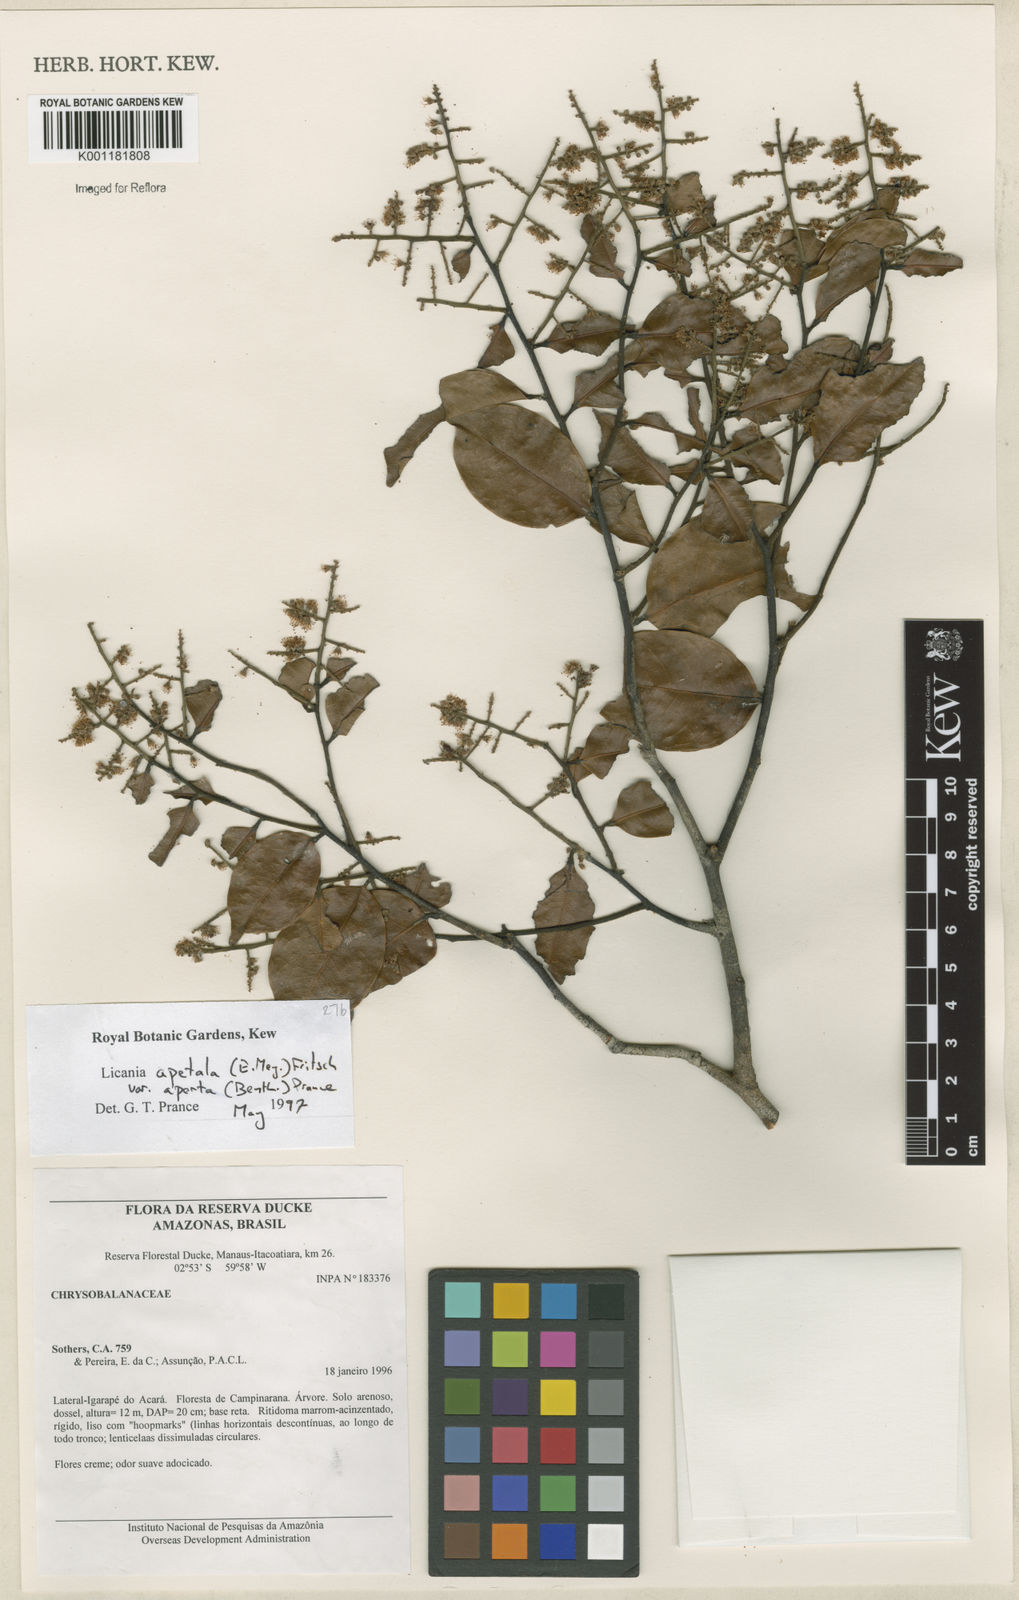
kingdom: Plantae
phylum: Tracheophyta
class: Magnoliopsida
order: Malpighiales
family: Chrysobalanaceae
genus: Leptobalanus
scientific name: Leptobalanus apetalus
